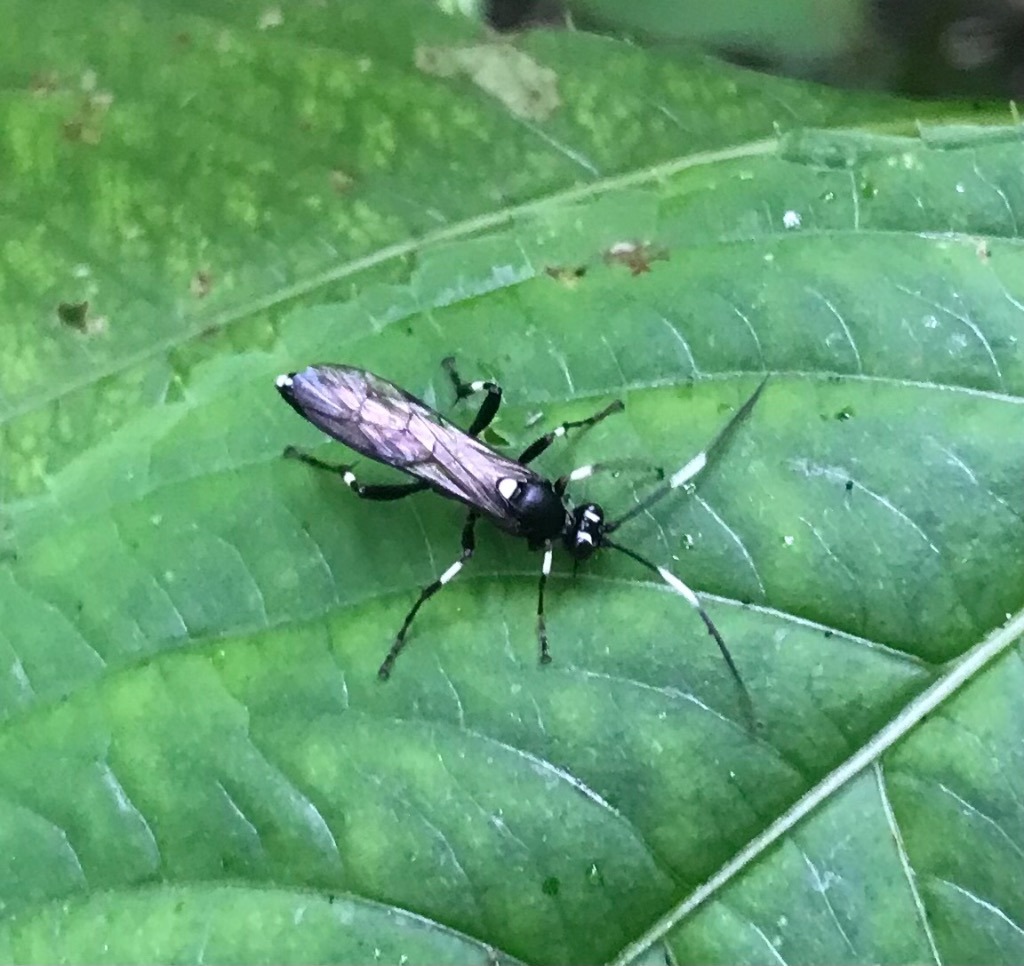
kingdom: Animalia
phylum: Arthropoda
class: Insecta
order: Hymenoptera
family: Ichneumonidae
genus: Achaius
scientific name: Achaius oratorius
